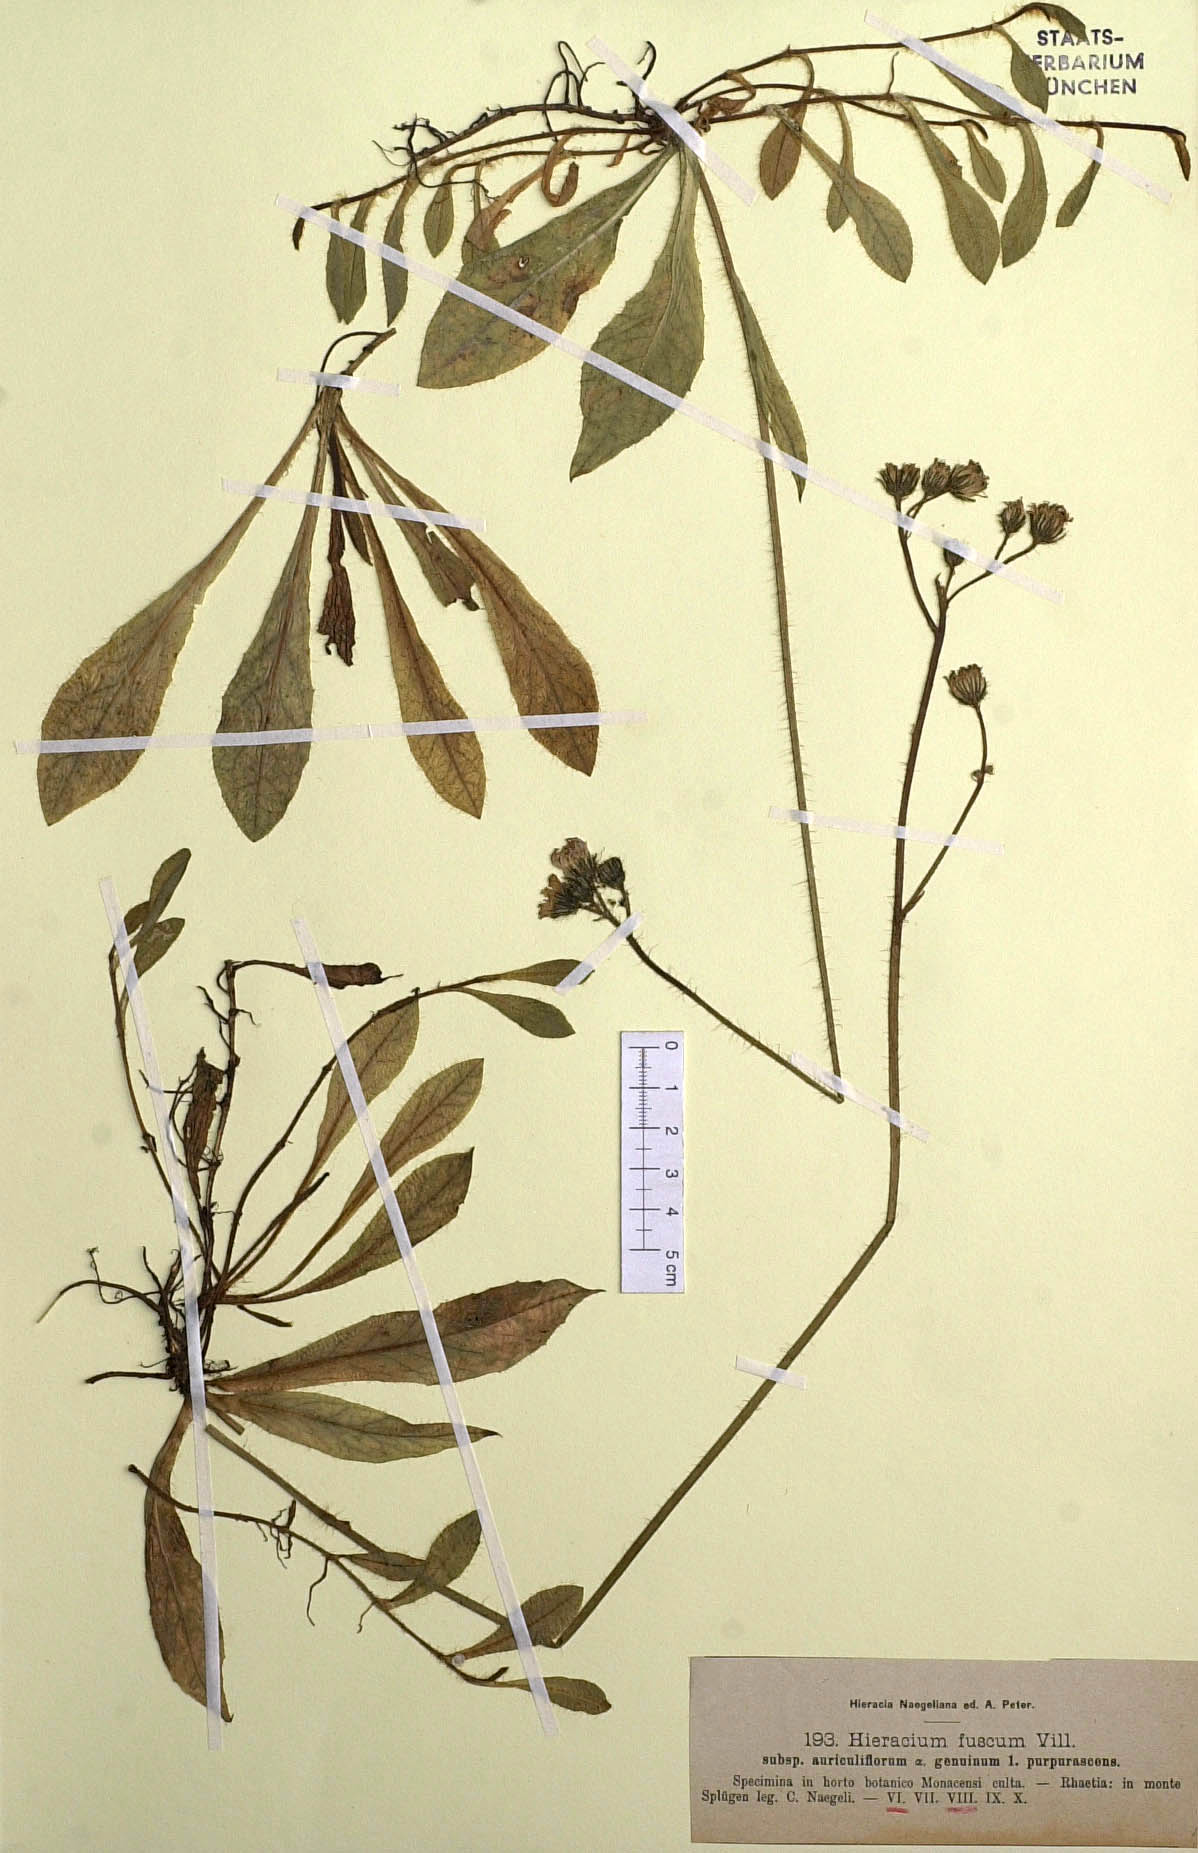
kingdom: Plantae
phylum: Tracheophyta
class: Magnoliopsida
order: Asterales
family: Asteraceae
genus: Pilosella
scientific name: Pilosella fusca
